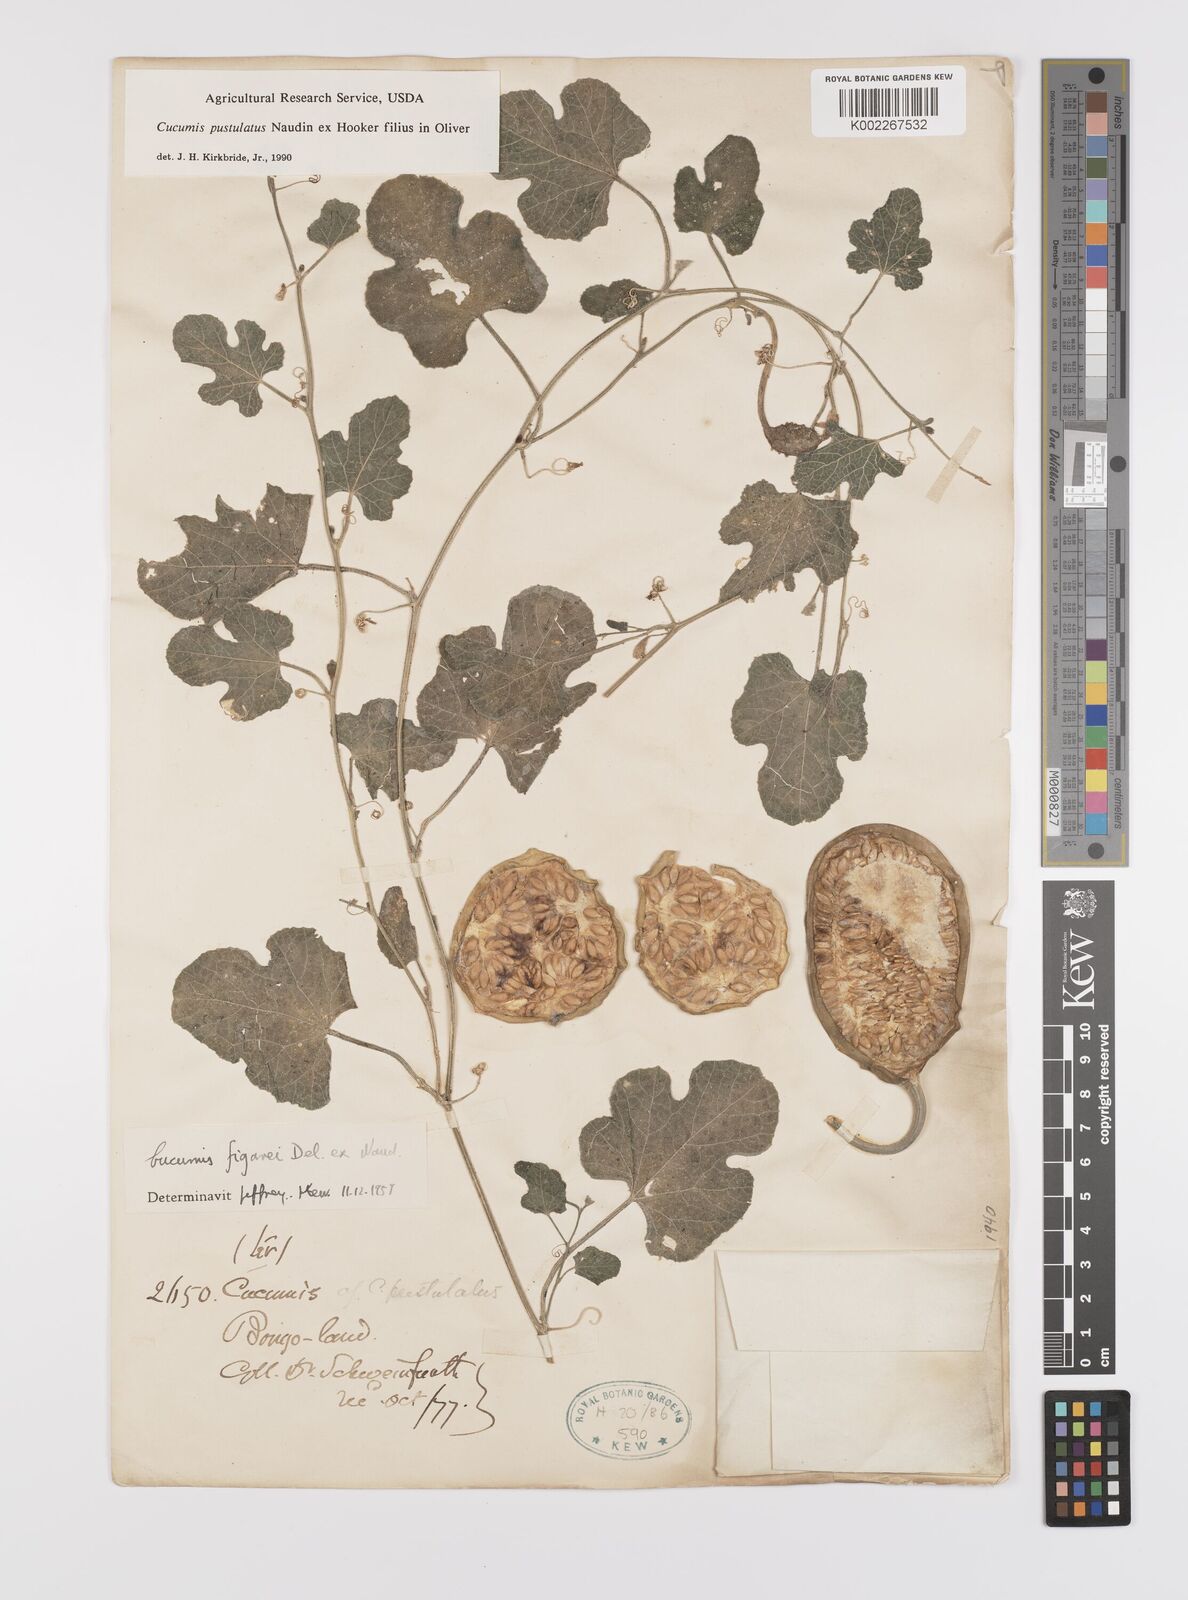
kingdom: Plantae
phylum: Tracheophyta
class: Magnoliopsida
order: Cucurbitales
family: Cucurbitaceae
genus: Cucumis
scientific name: Cucumis pustulatus
